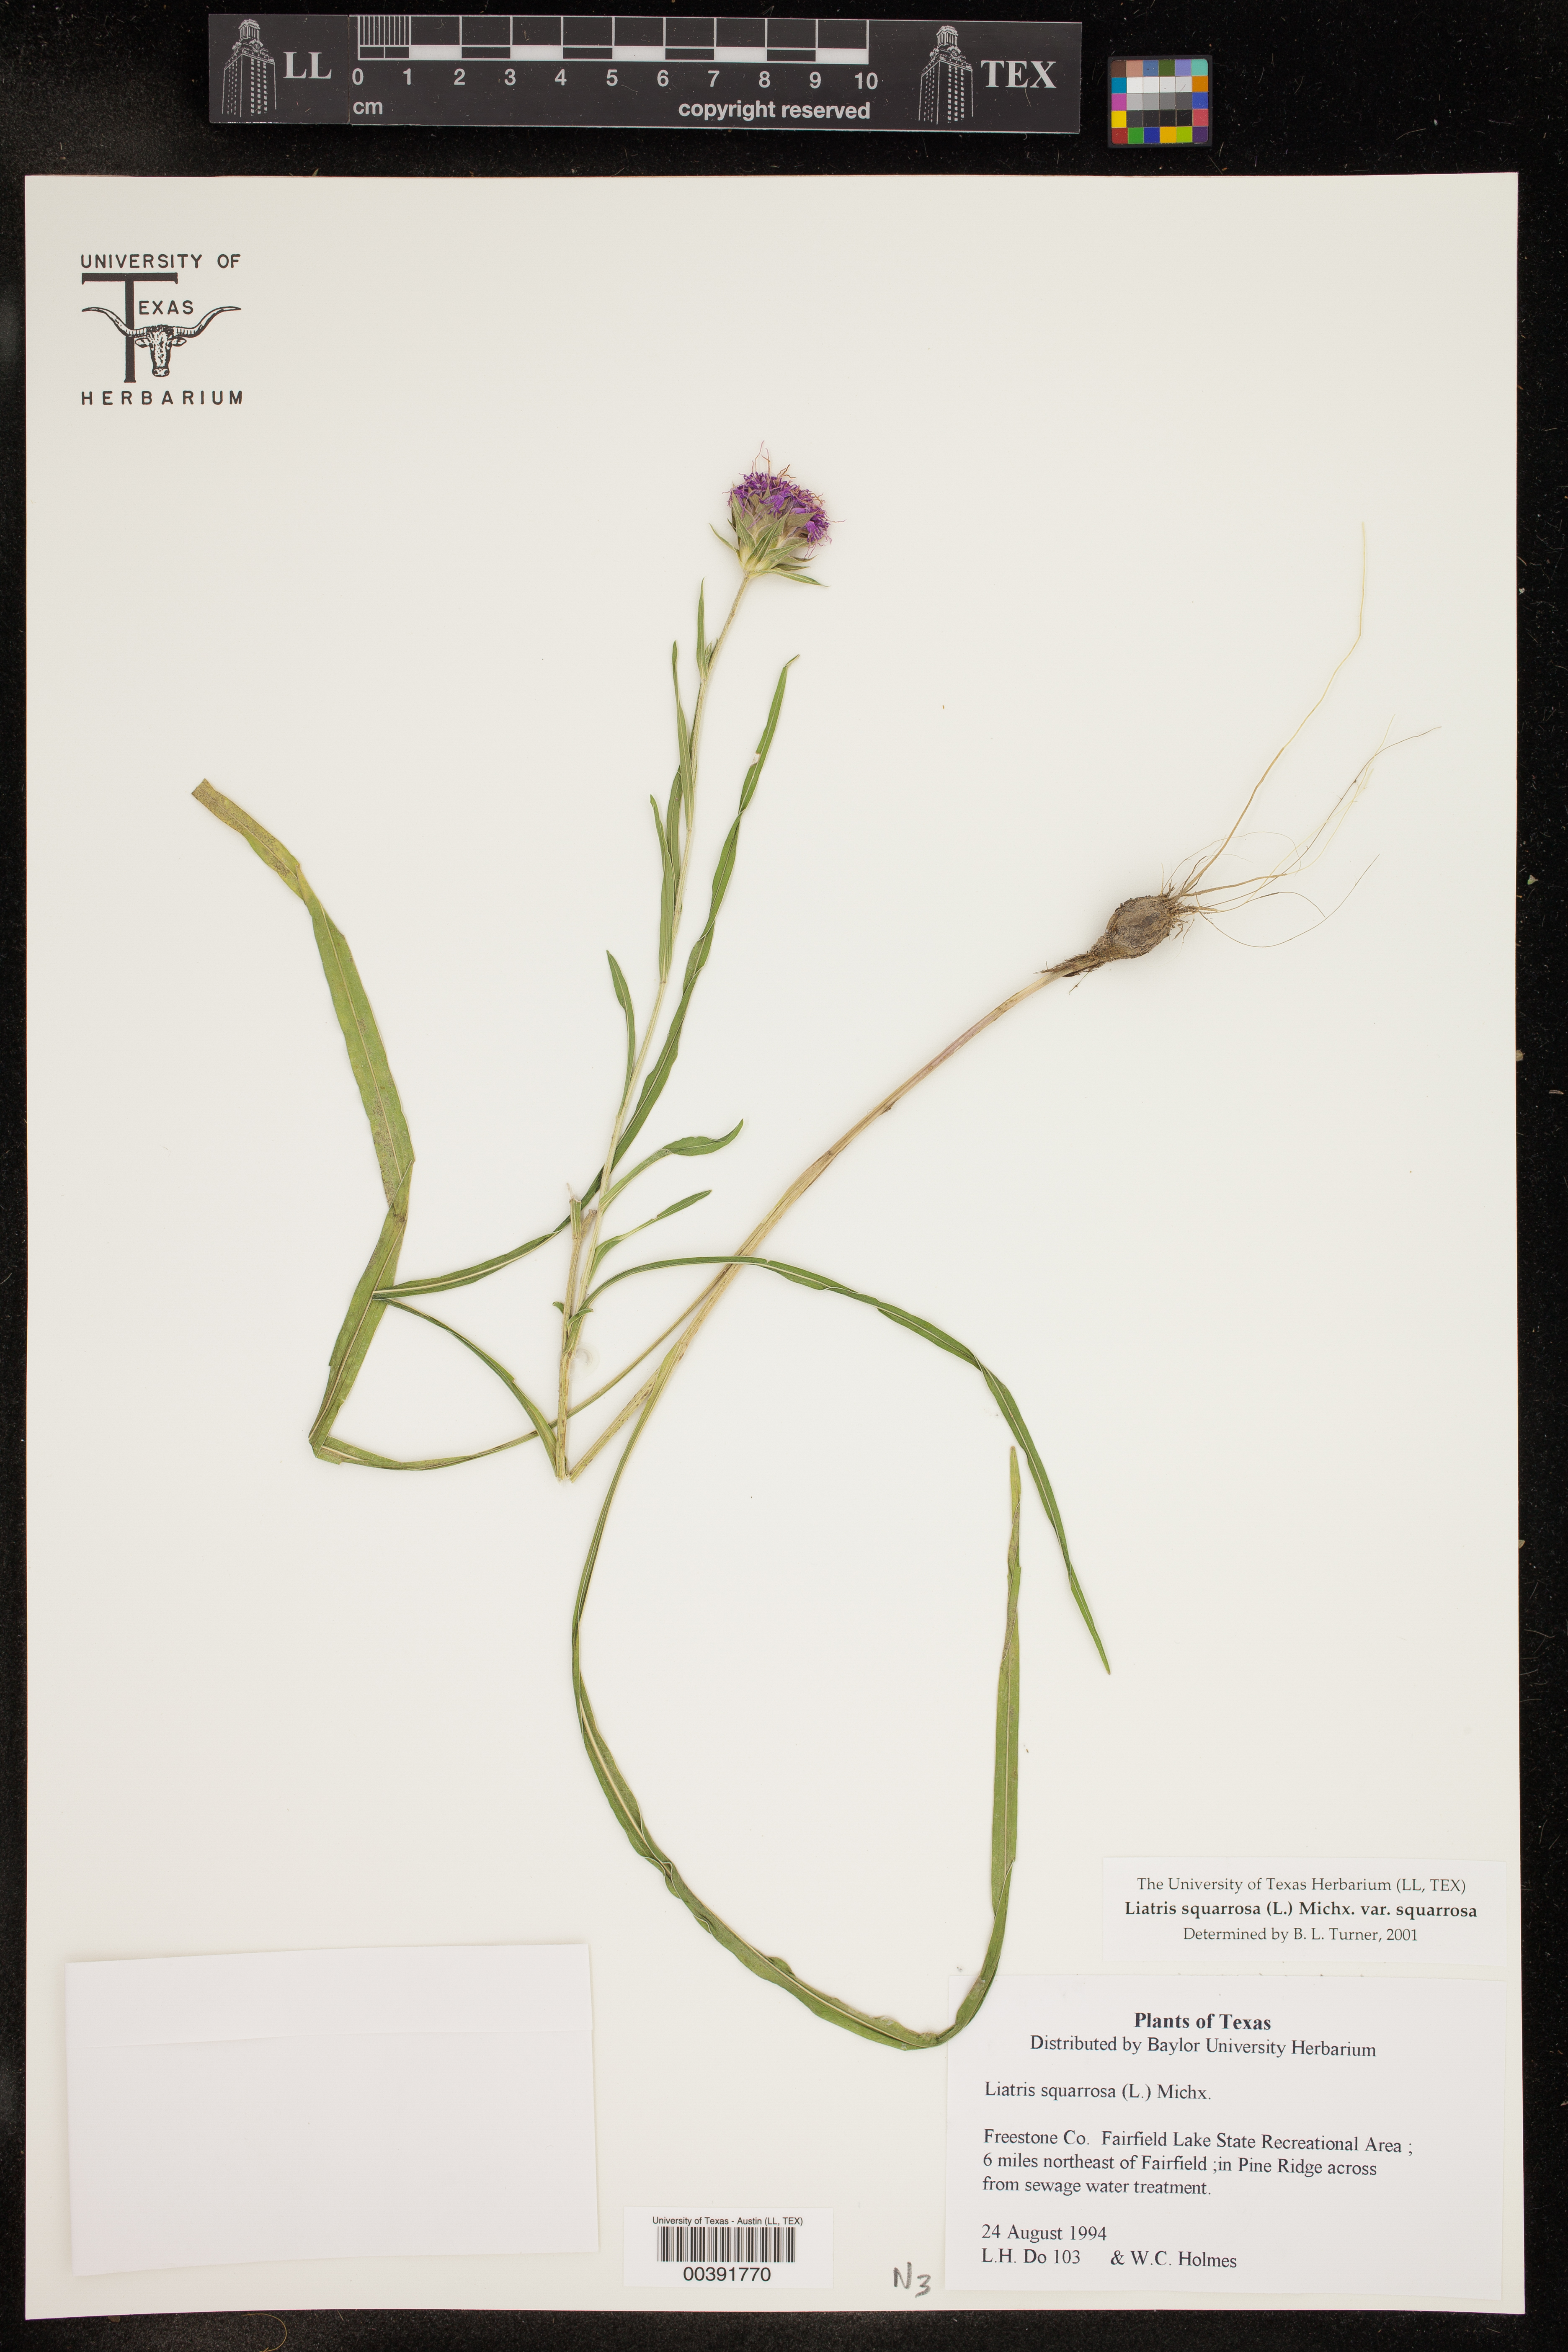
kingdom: Plantae
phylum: Tracheophyta
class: Magnoliopsida
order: Asterales
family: Asteraceae
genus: Liatris
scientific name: Liatris squarrosa
